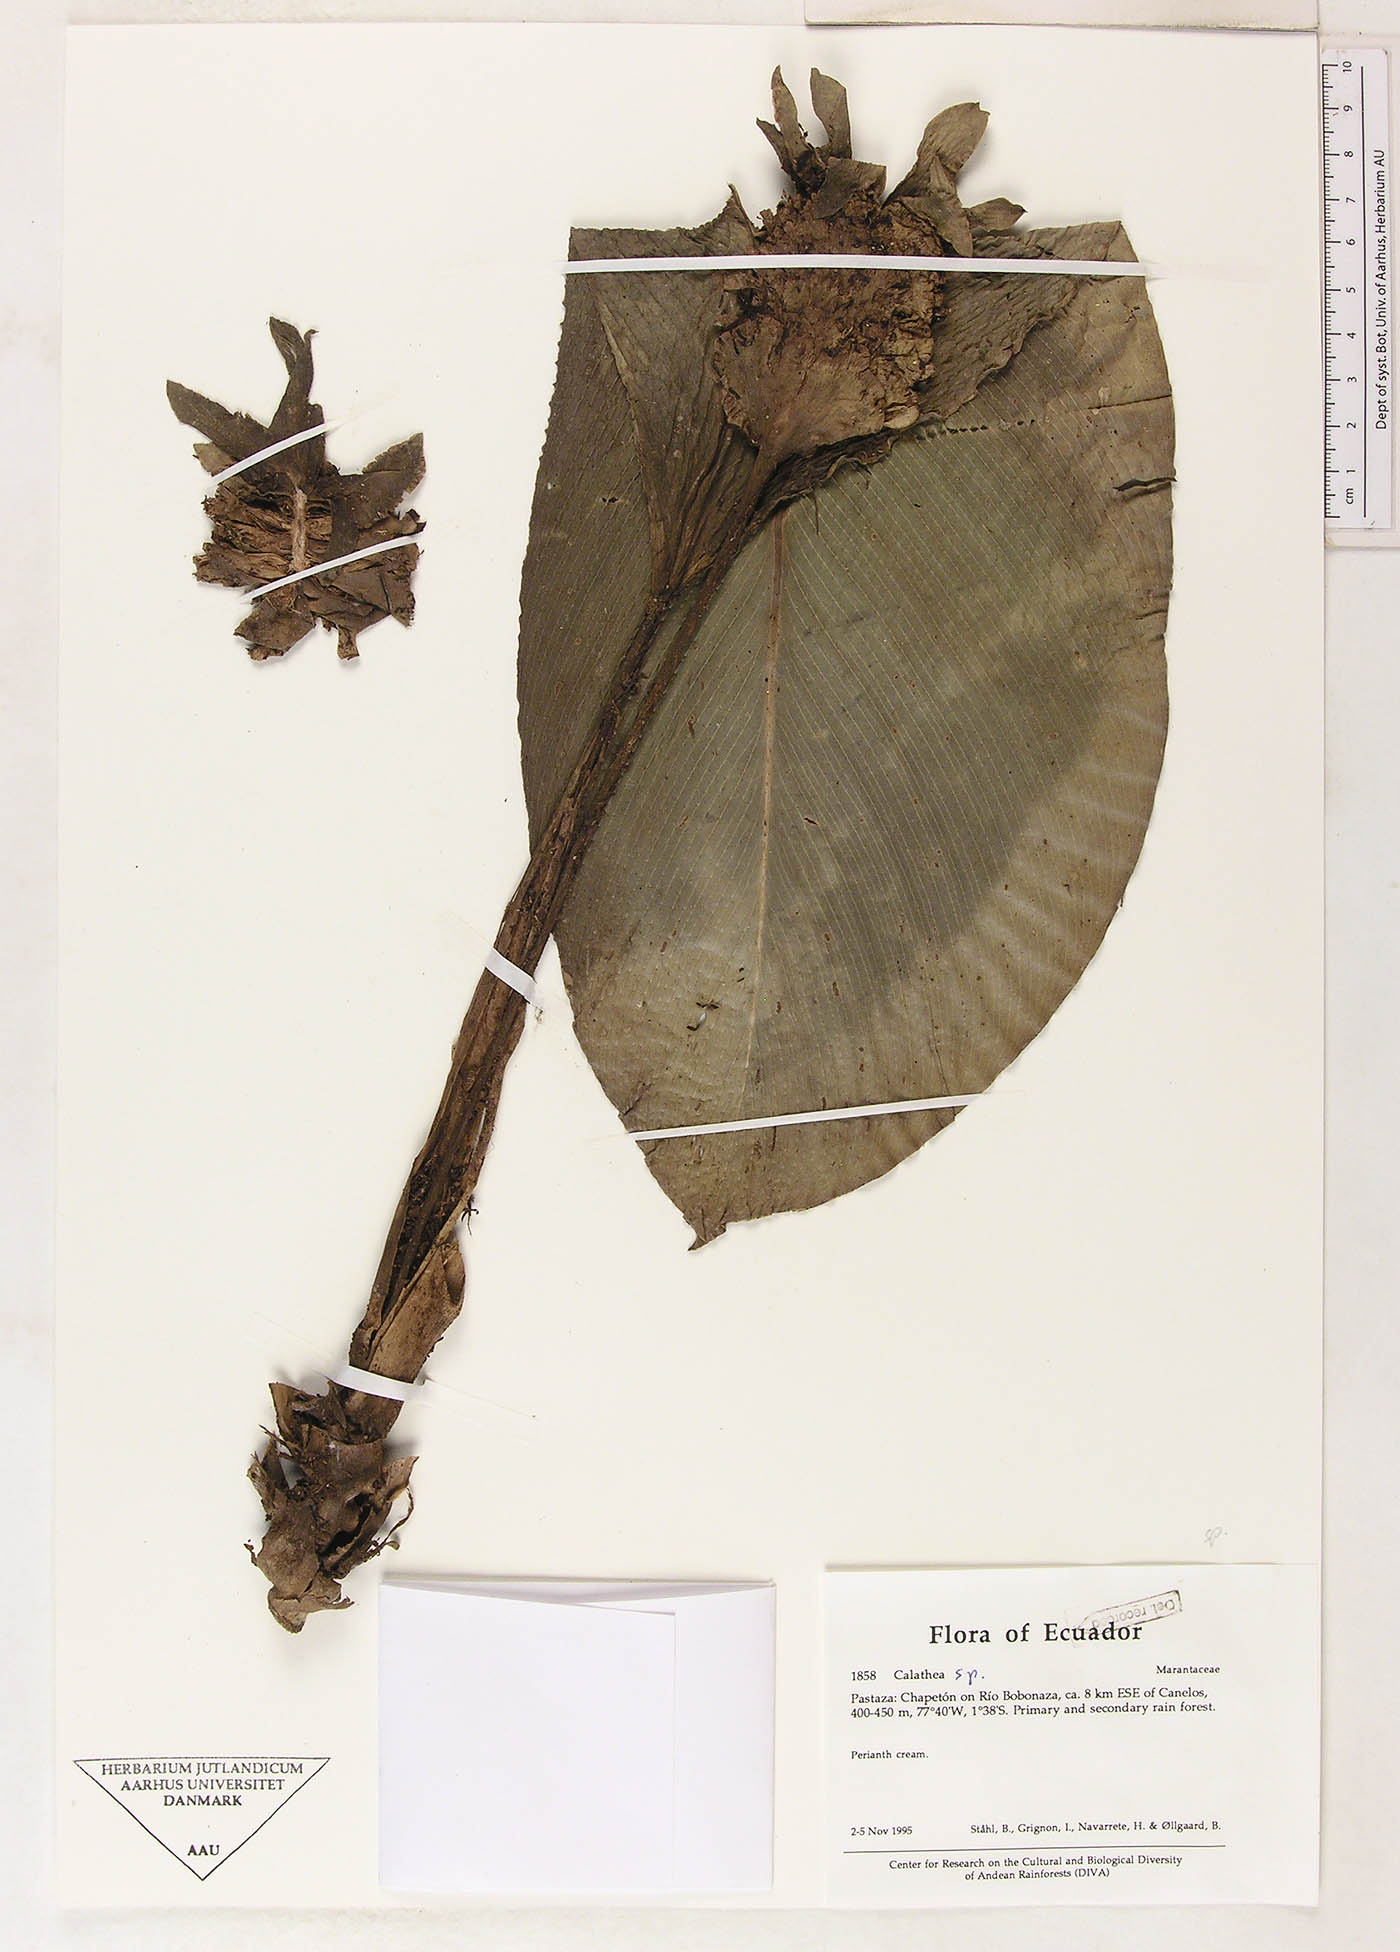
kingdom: Plantae
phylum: Tracheophyta
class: Magnoliopsida
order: Laurales
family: Lauraceae
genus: Goeppertia
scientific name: Goeppertia
